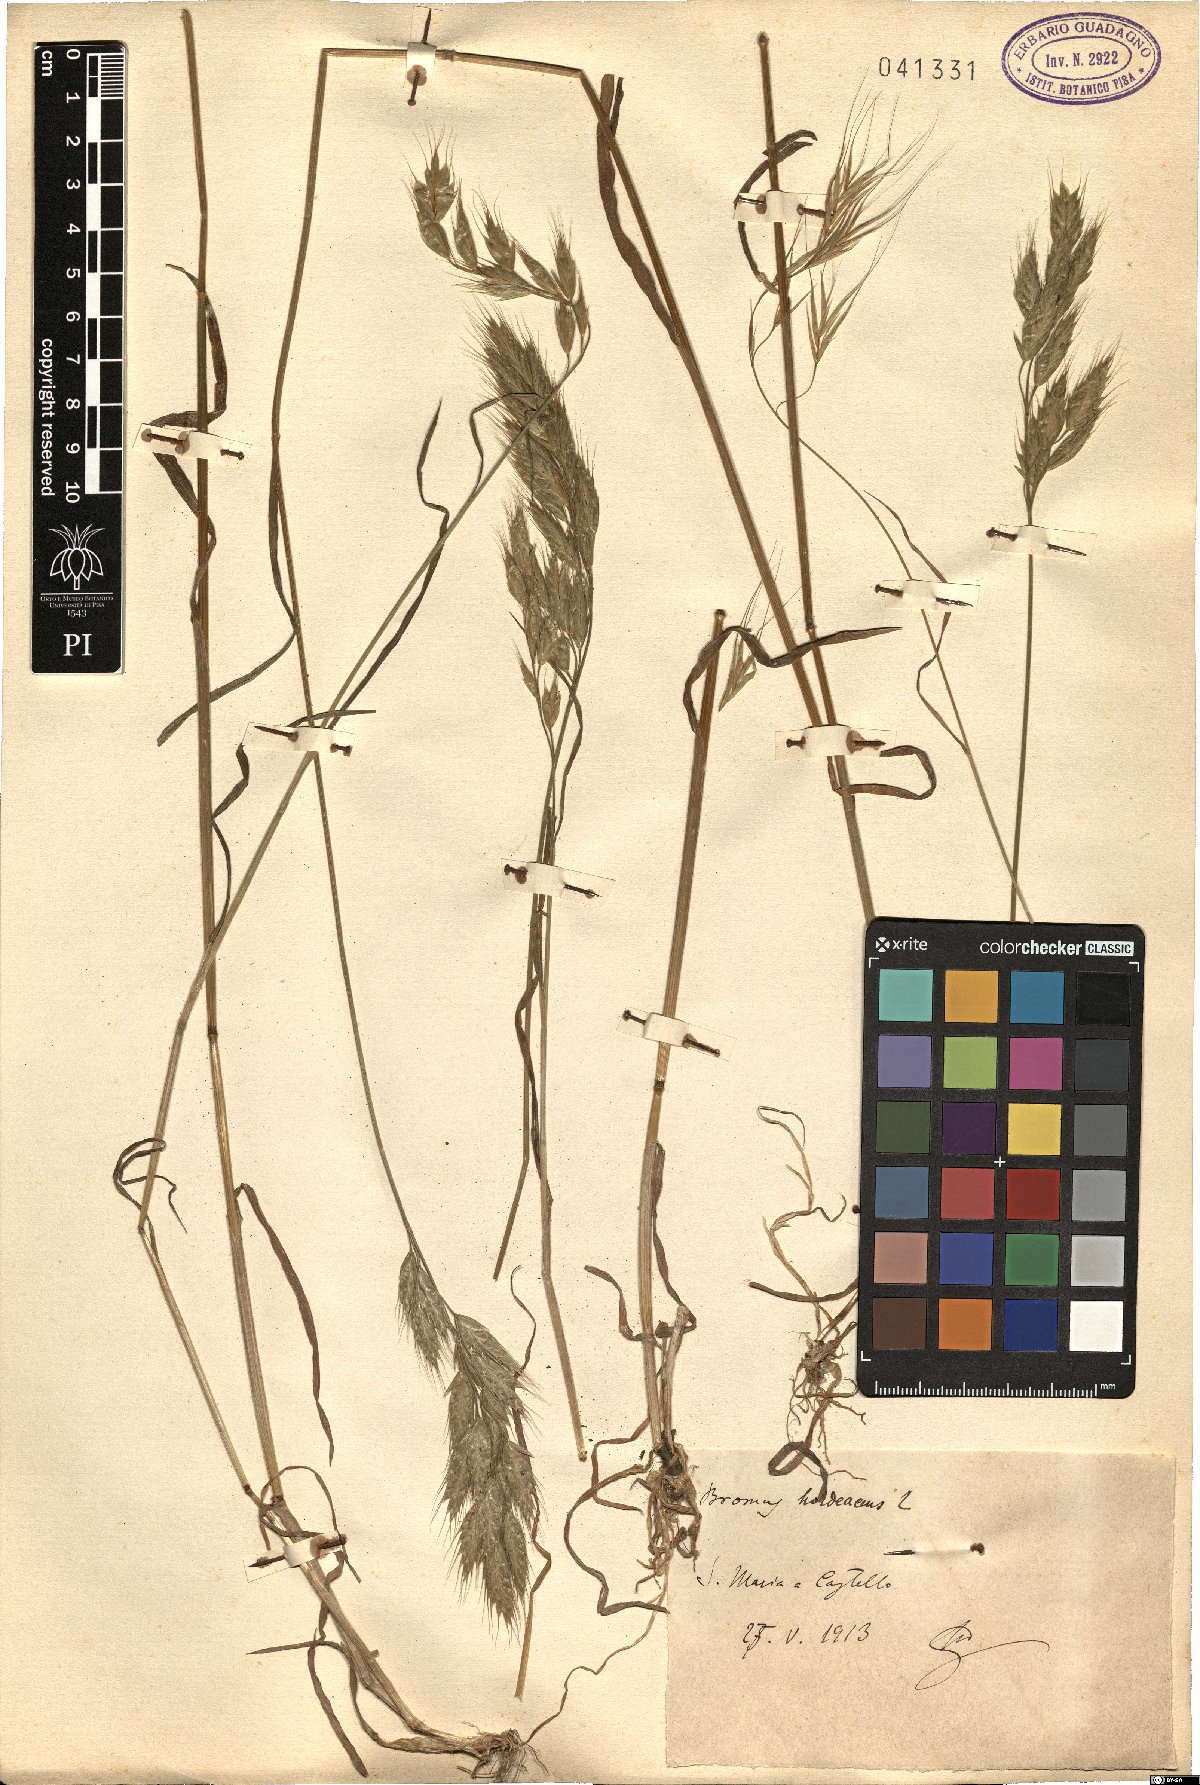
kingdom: Plantae
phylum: Tracheophyta
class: Liliopsida
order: Poales
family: Poaceae
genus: Bromus
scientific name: Bromus hordeaceus
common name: Soft brome
